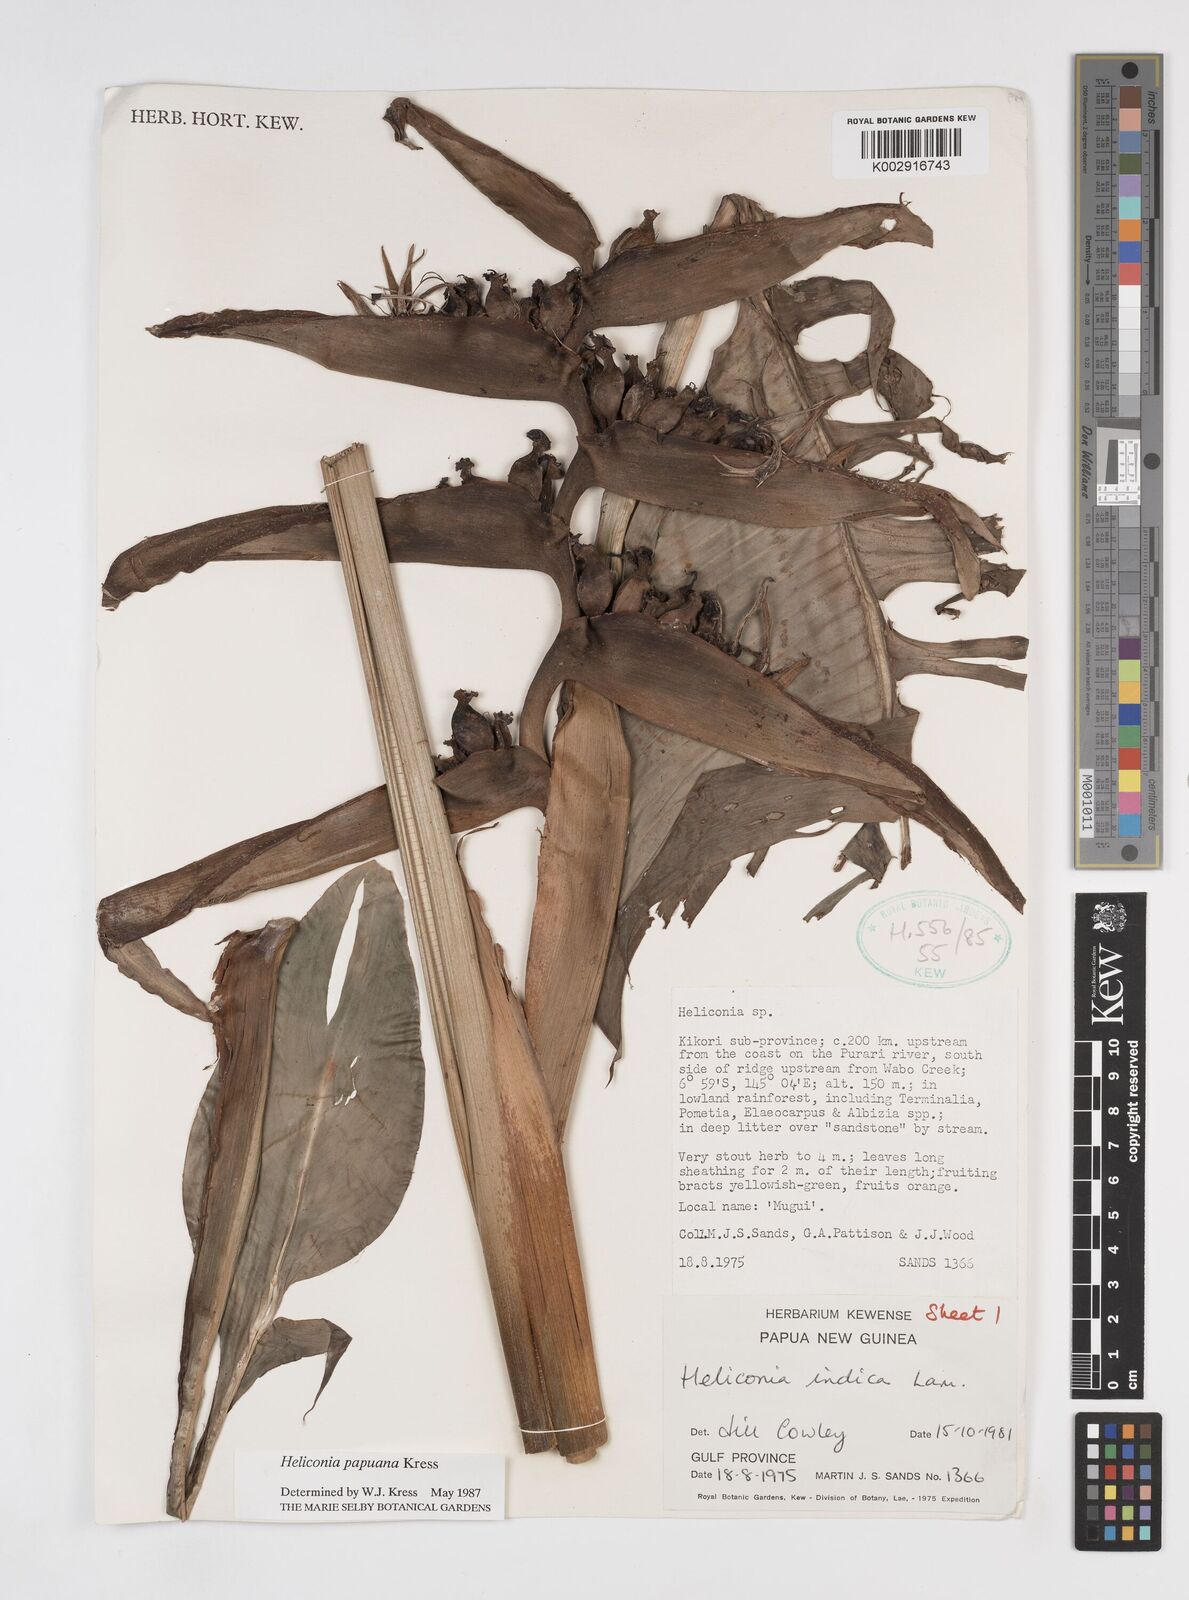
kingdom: Plantae
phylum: Tracheophyta
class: Liliopsida
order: Zingiberales
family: Heliconiaceae
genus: Heliconia
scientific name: Heliconia papuana
